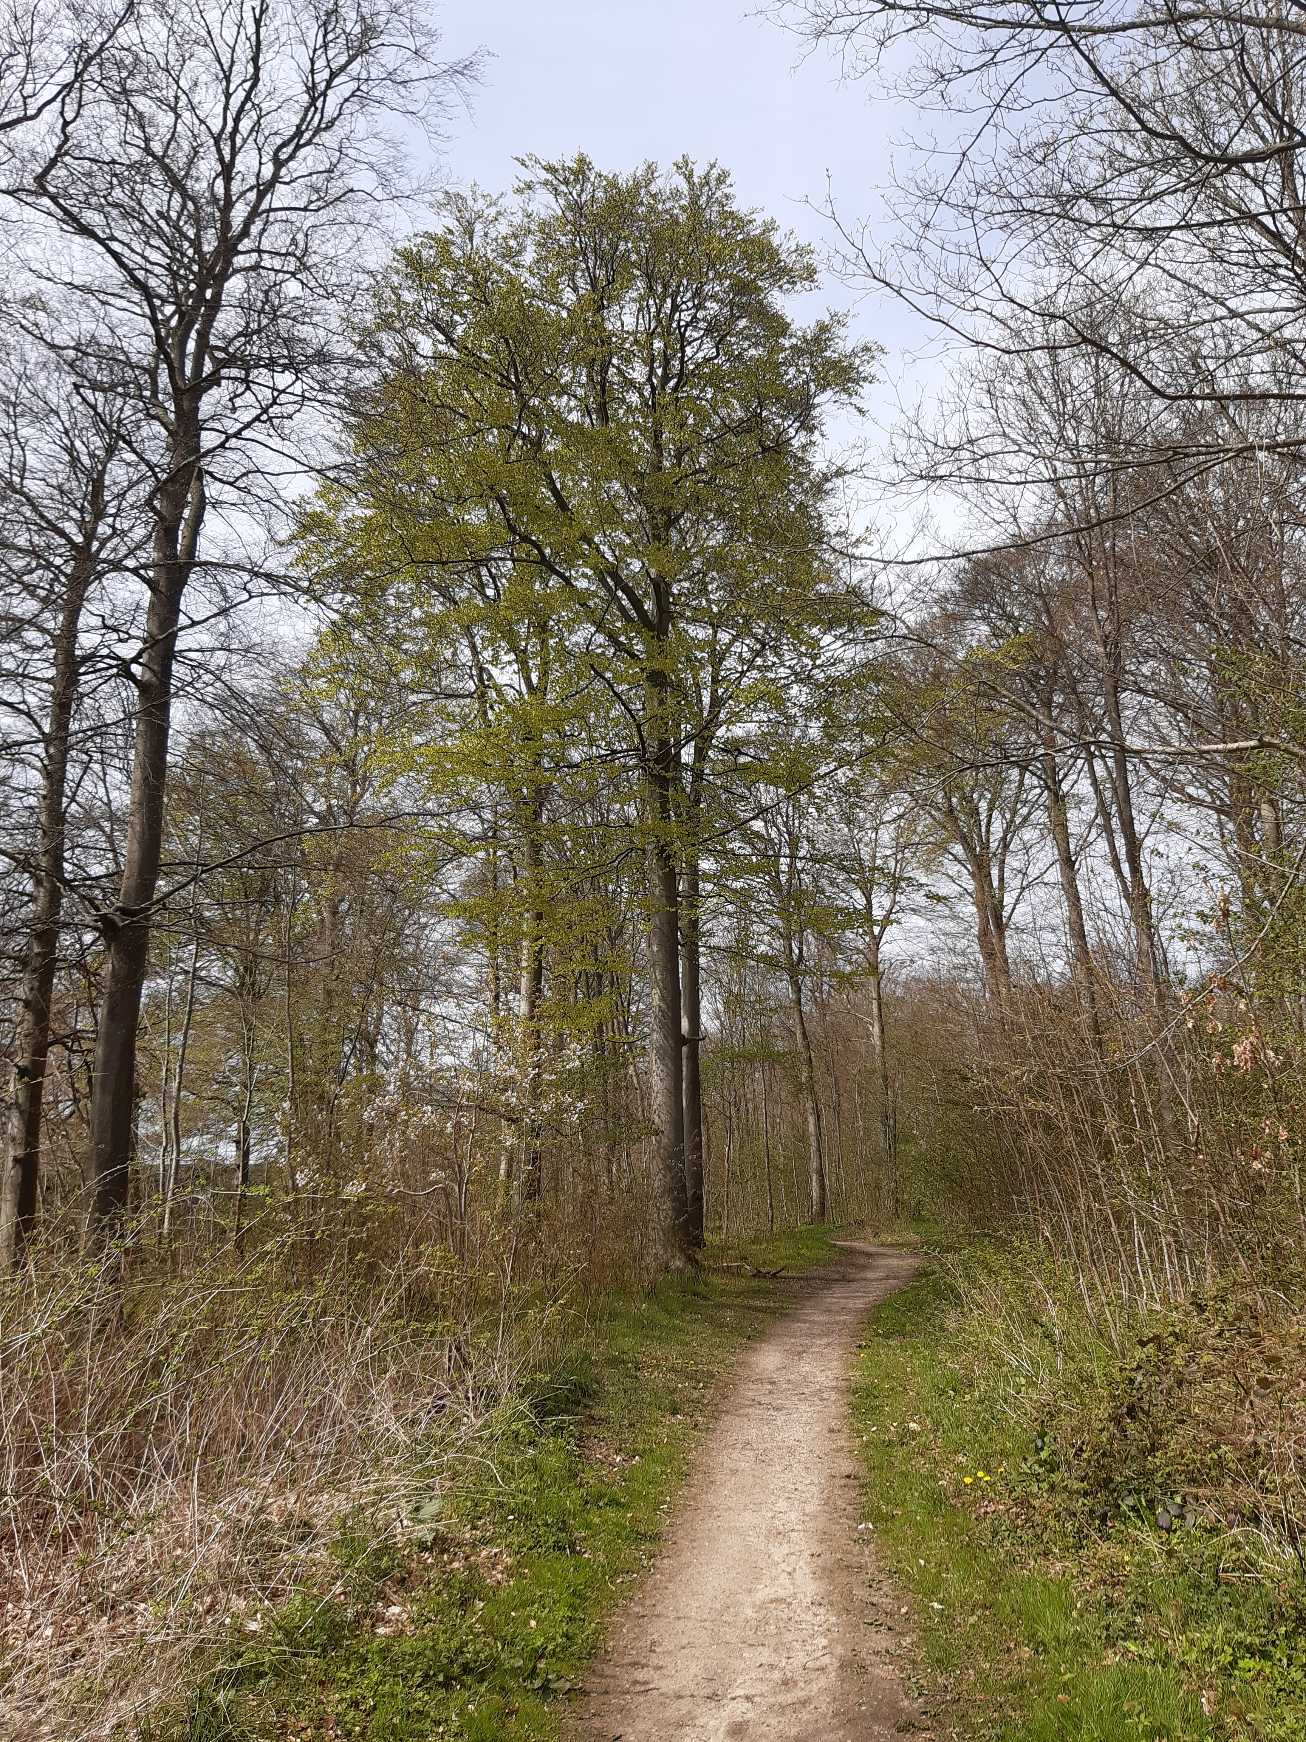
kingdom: Plantae
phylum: Tracheophyta
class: Magnoliopsida
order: Fagales
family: Fagaceae
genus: Fagus
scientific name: Fagus sylvatica
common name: Bøg
